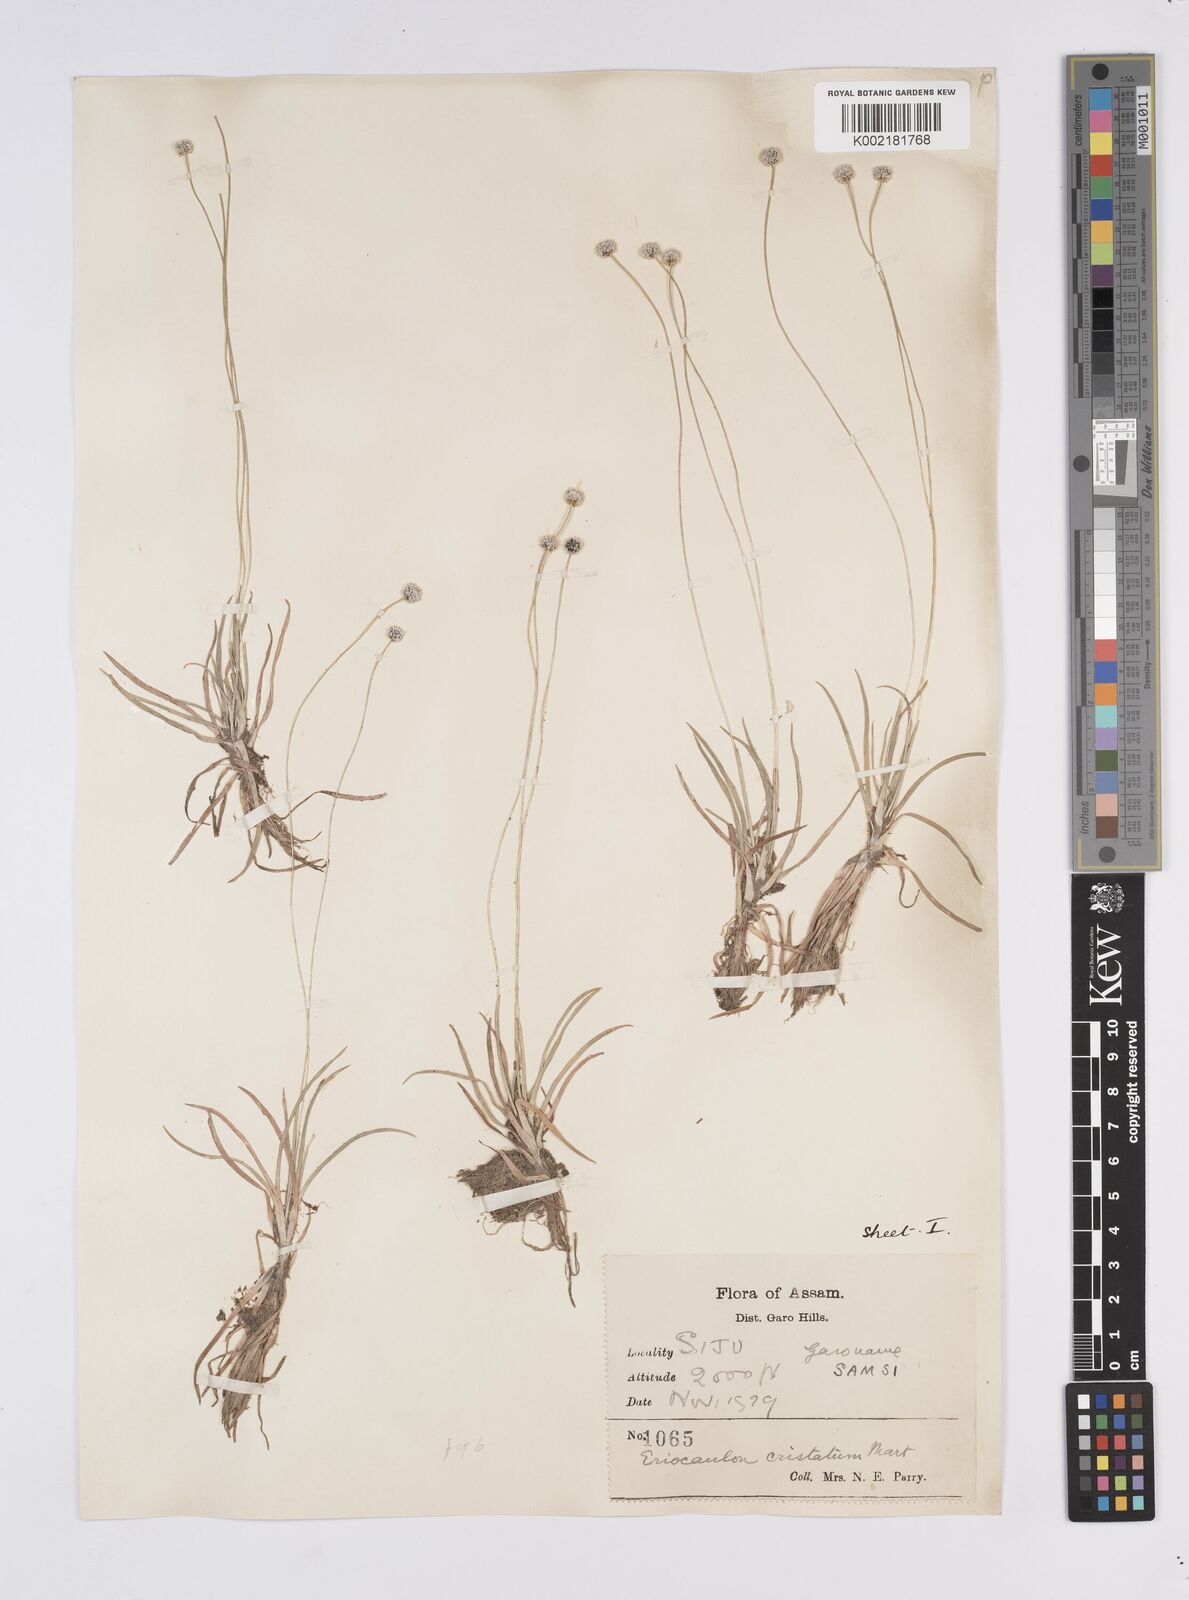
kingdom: Plantae
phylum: Tracheophyta
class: Liliopsida
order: Poales
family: Eriocaulaceae
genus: Eriocaulon
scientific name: Eriocaulon cristatum
